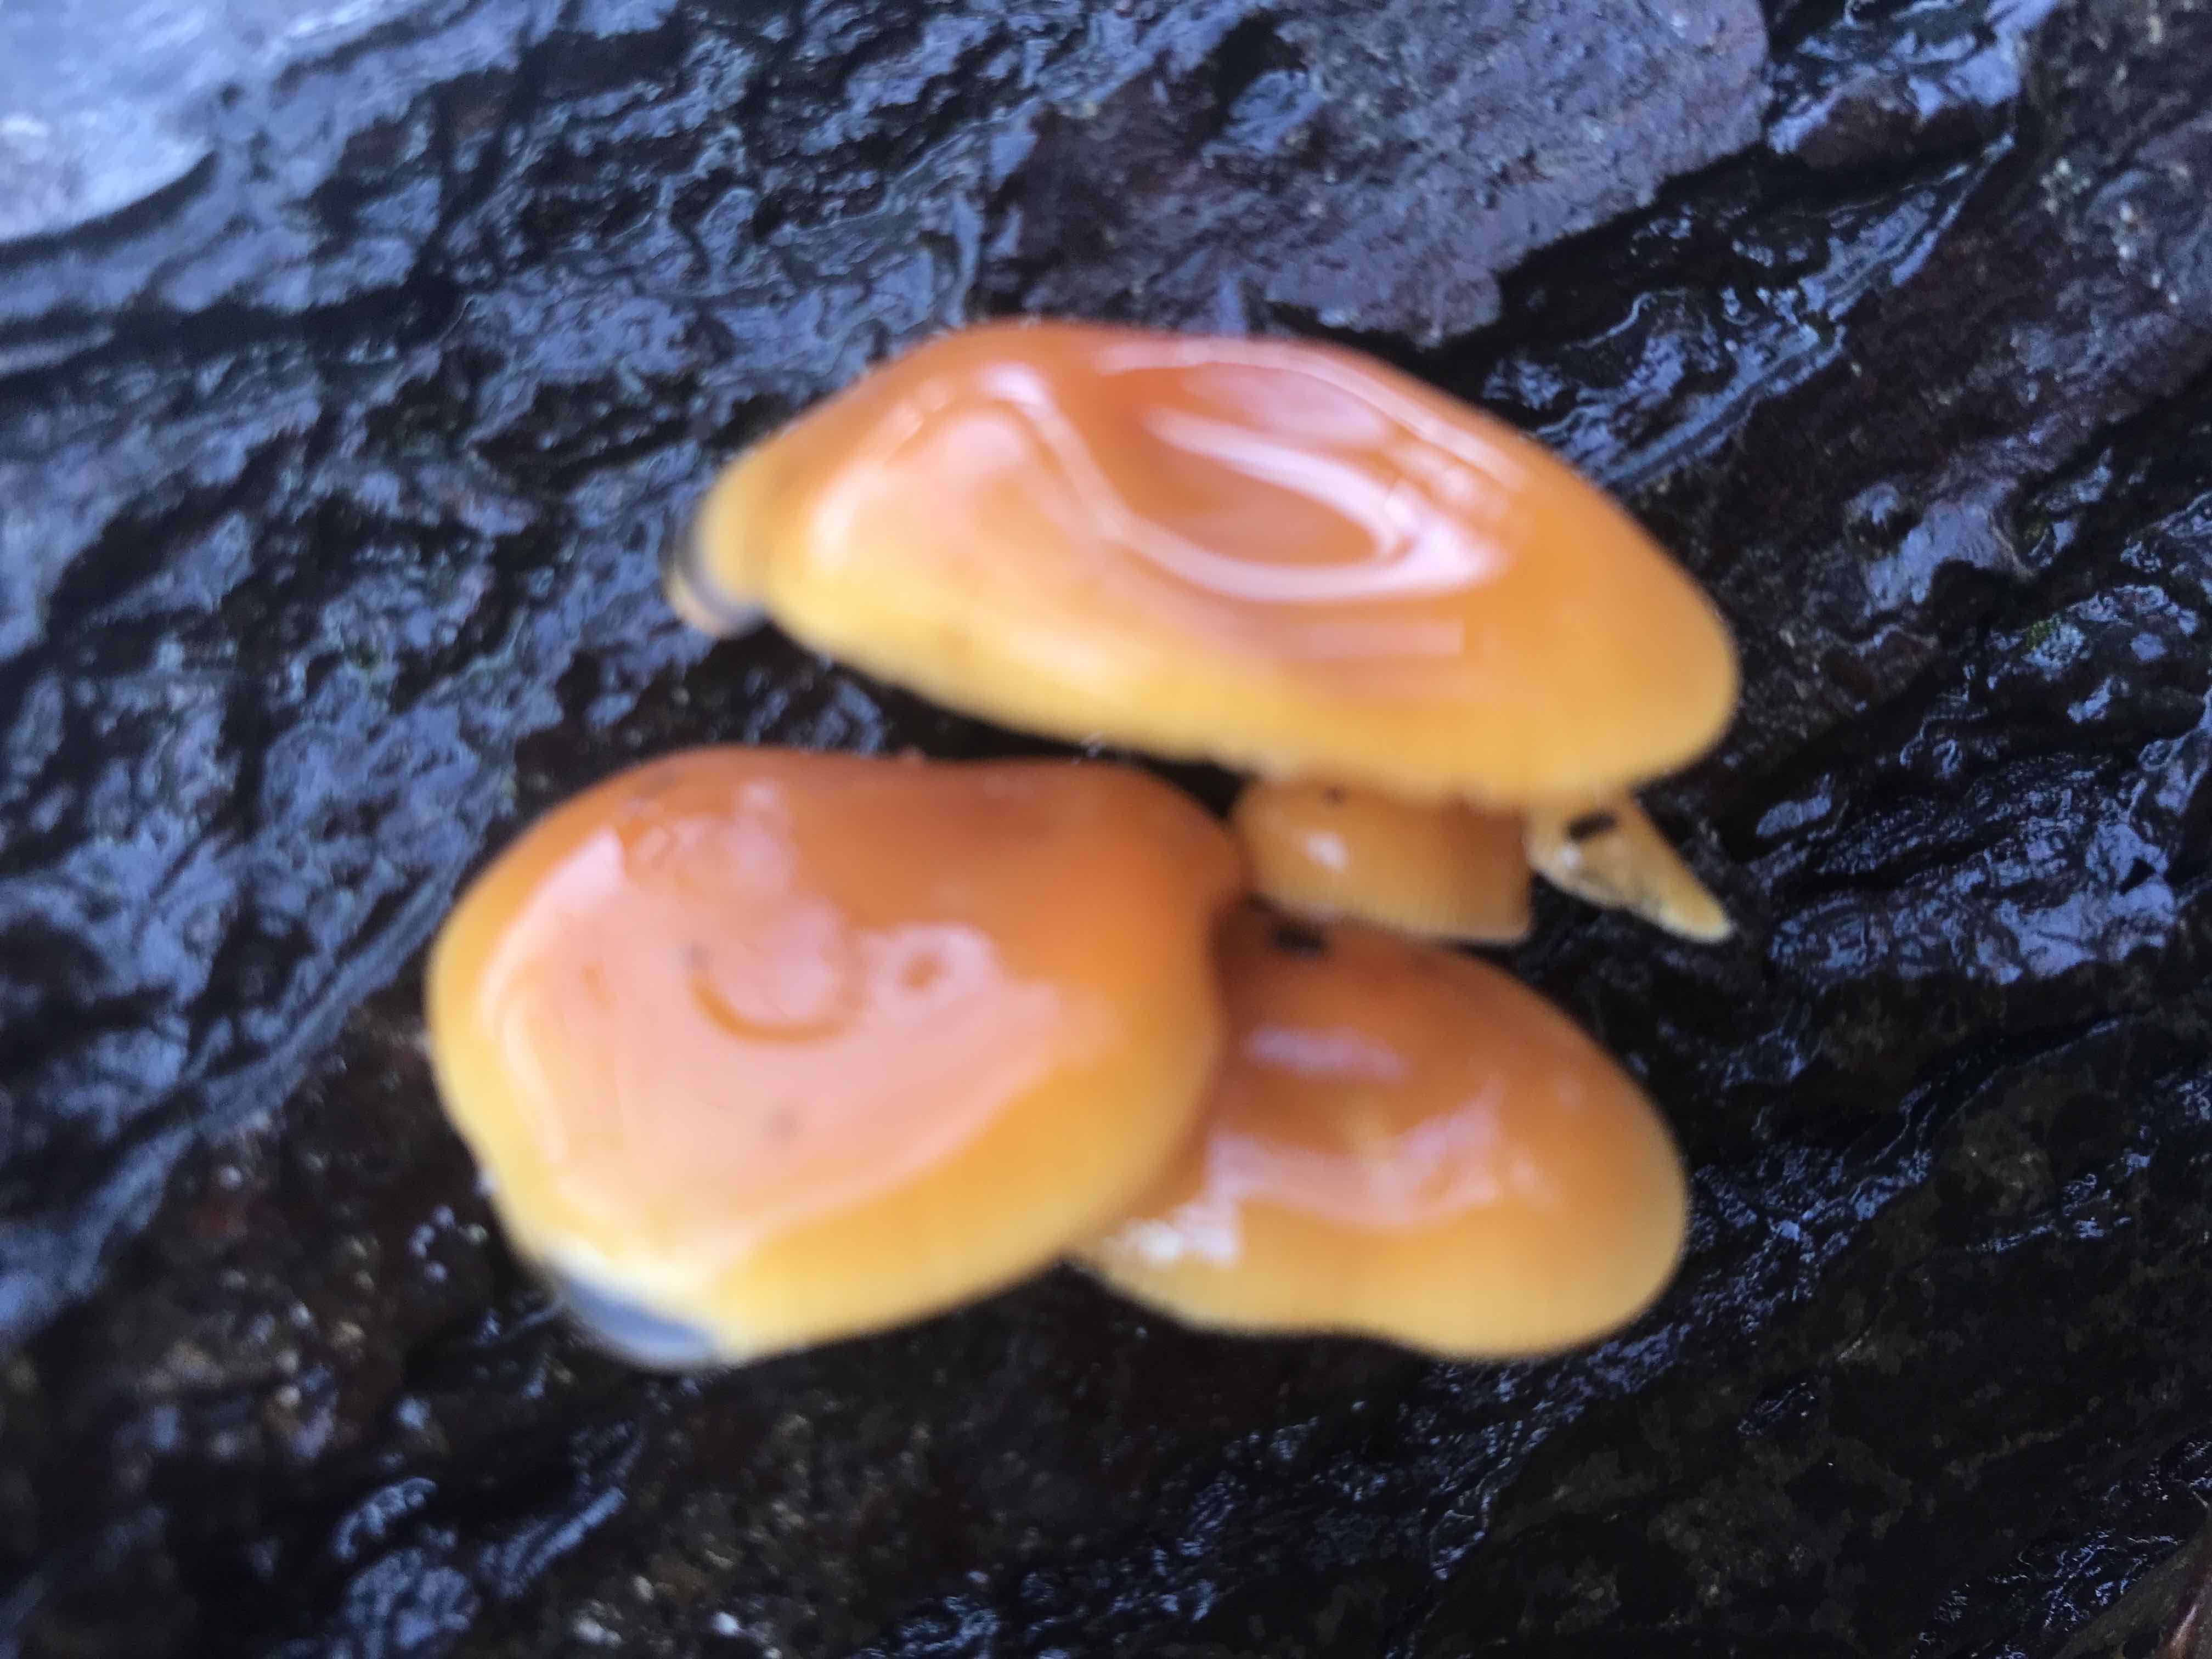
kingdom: Fungi
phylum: Basidiomycota
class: Agaricomycetes
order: Agaricales
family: Physalacriaceae
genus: Flammulina
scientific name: Flammulina
